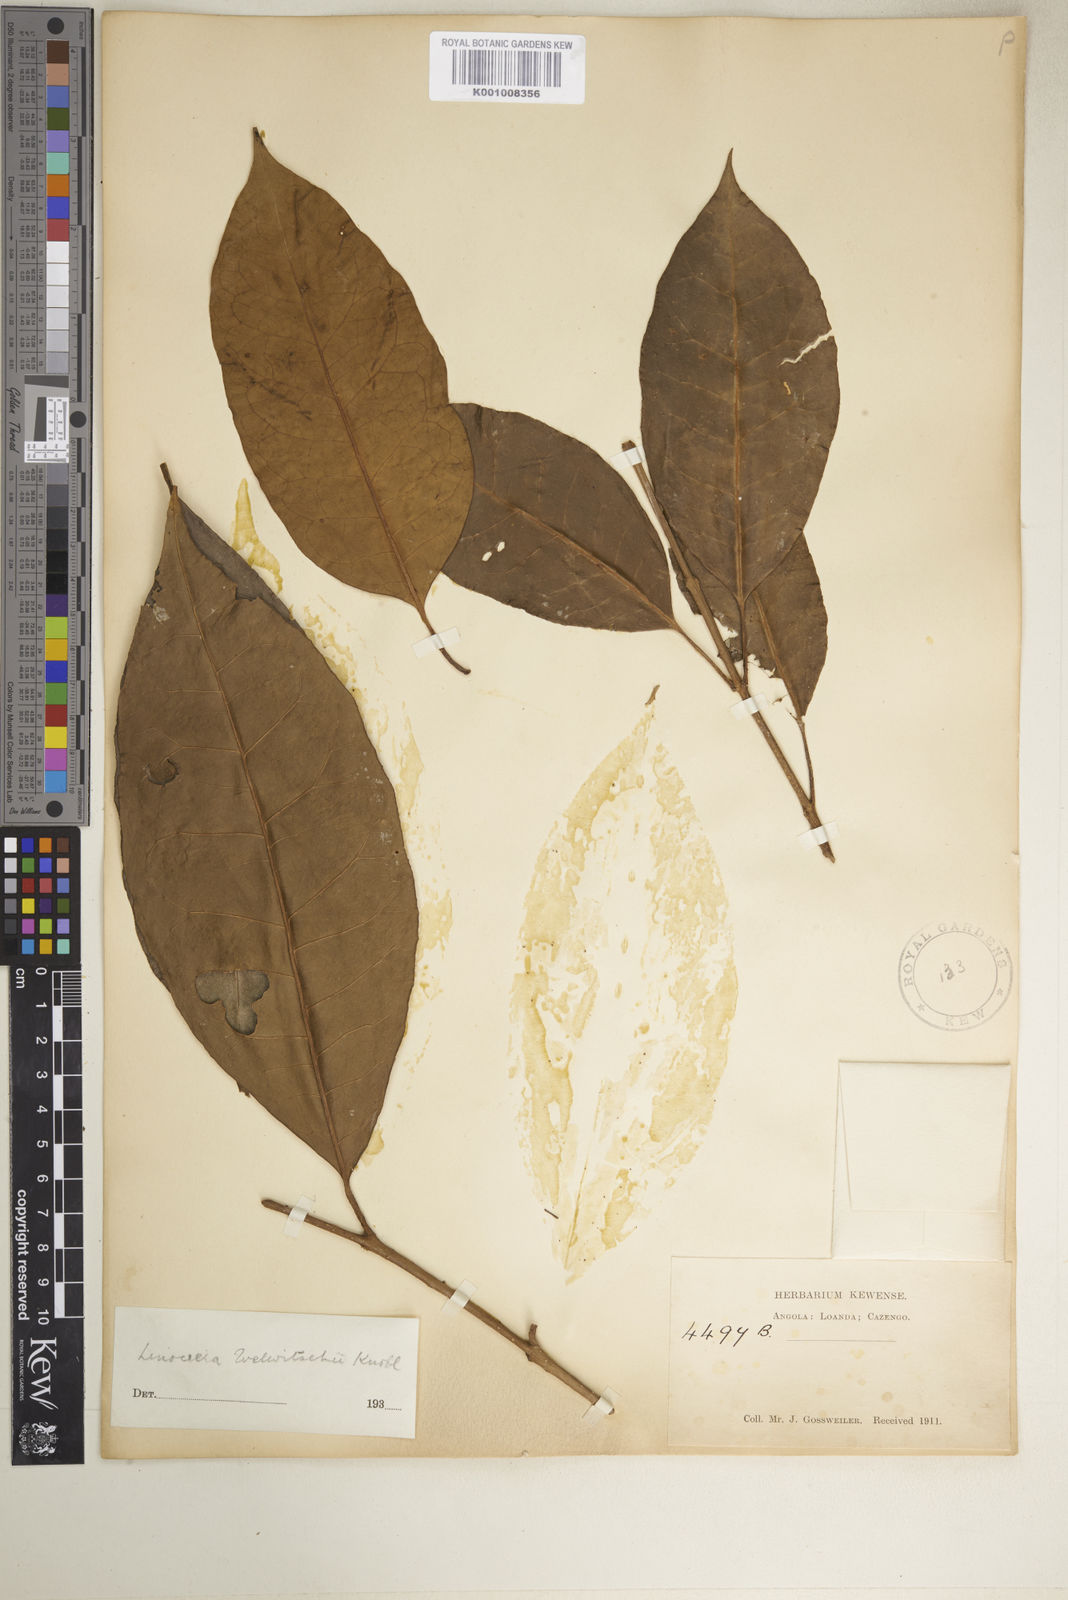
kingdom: Plantae
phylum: Tracheophyta
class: Magnoliopsida
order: Lamiales
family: Oleaceae
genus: Olea
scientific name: Olea welwitschii
